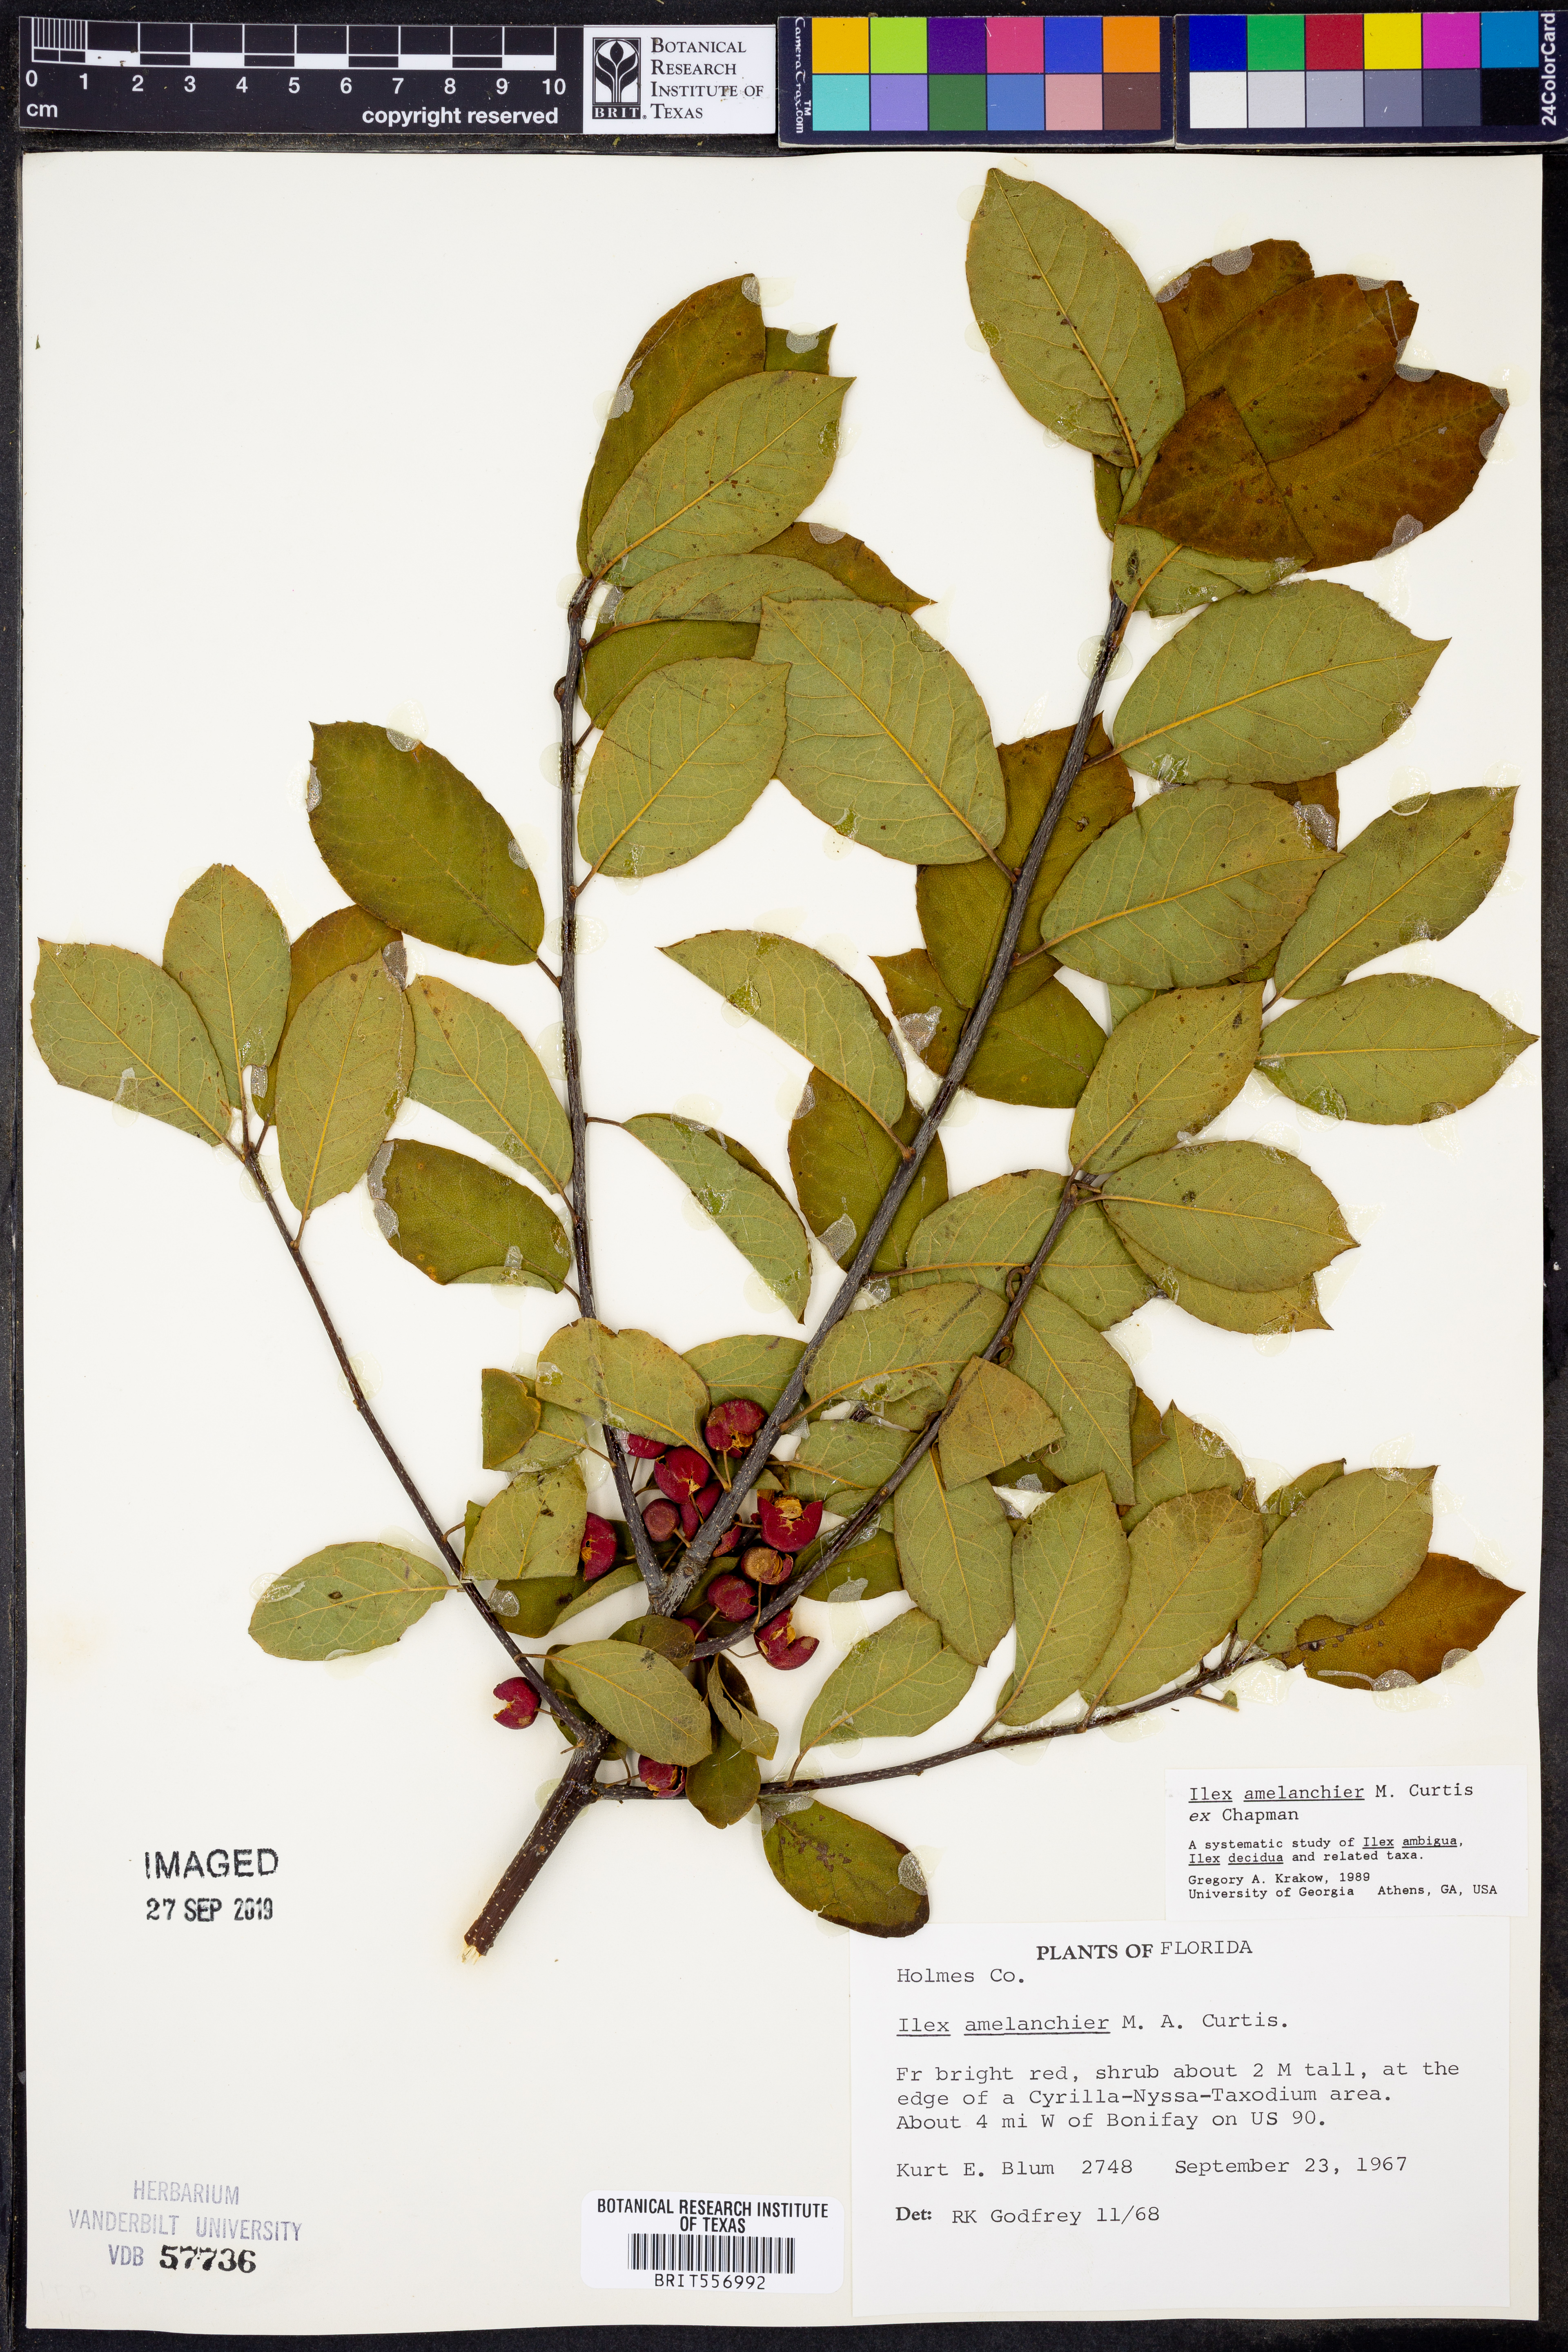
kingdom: Plantae
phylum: Tracheophyta
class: Magnoliopsida
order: Aquifoliales
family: Aquifoliaceae
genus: Ilex
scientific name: Ilex amelanchier
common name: Sarvis holly
